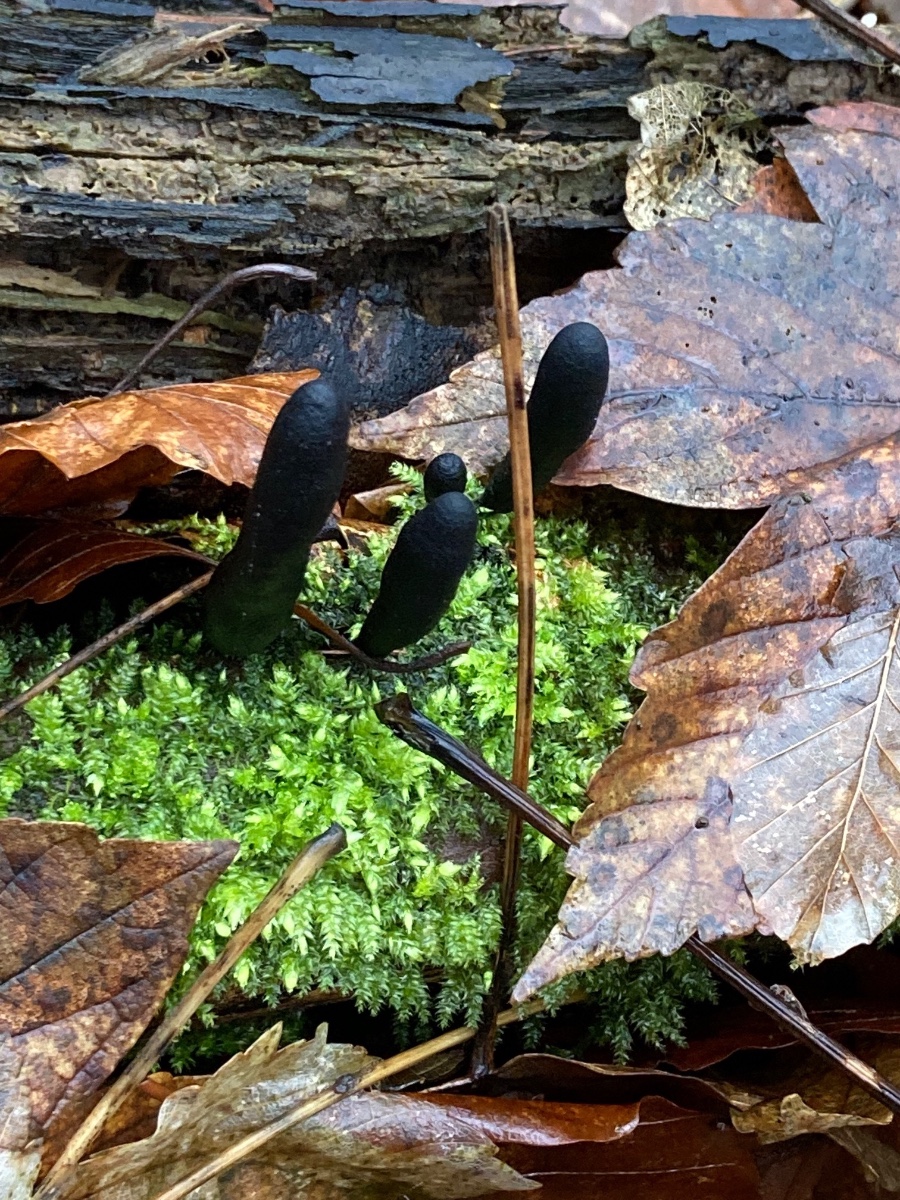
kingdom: Fungi
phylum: Ascomycota
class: Sordariomycetes
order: Xylariales
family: Xylariaceae
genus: Xylaria
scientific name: Xylaria longipes
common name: slank stødsvamp
